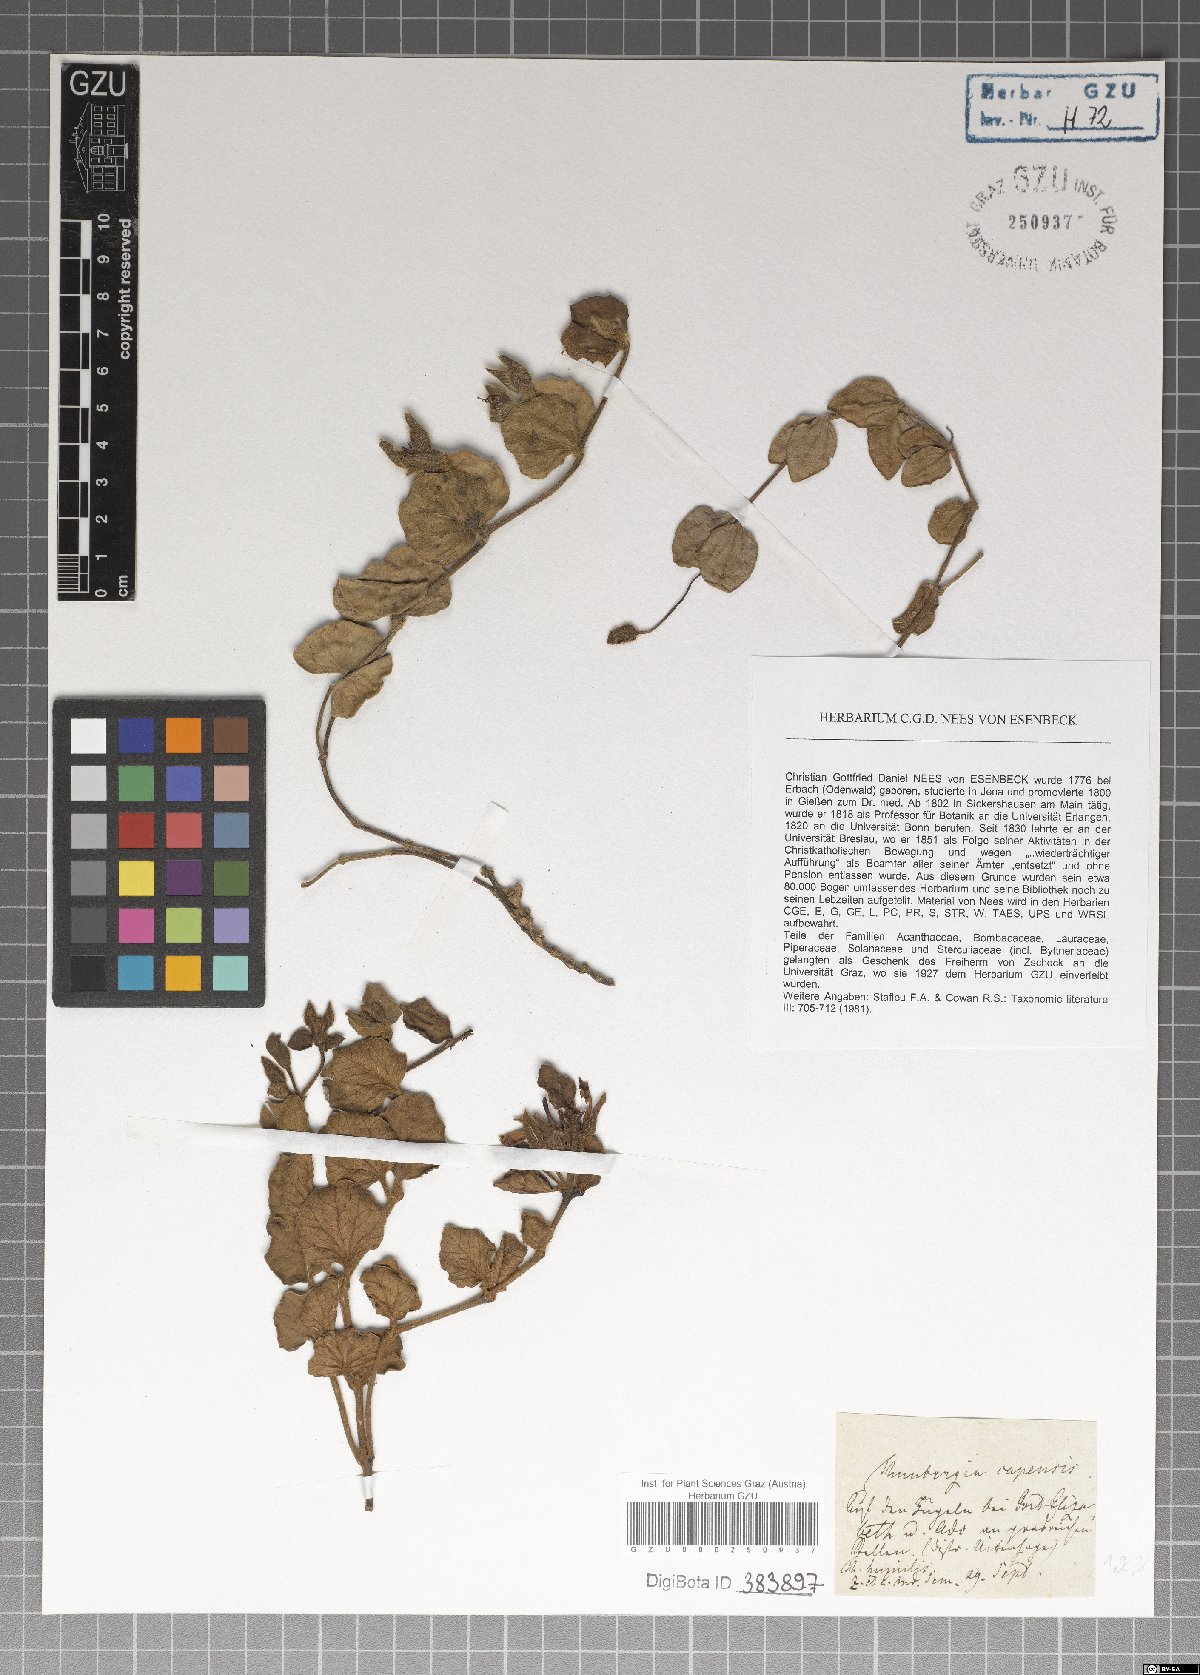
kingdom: Plantae
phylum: Tracheophyta
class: Magnoliopsida
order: Lamiales
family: Acanthaceae
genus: Thunbergia
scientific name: Thunbergia capensis
